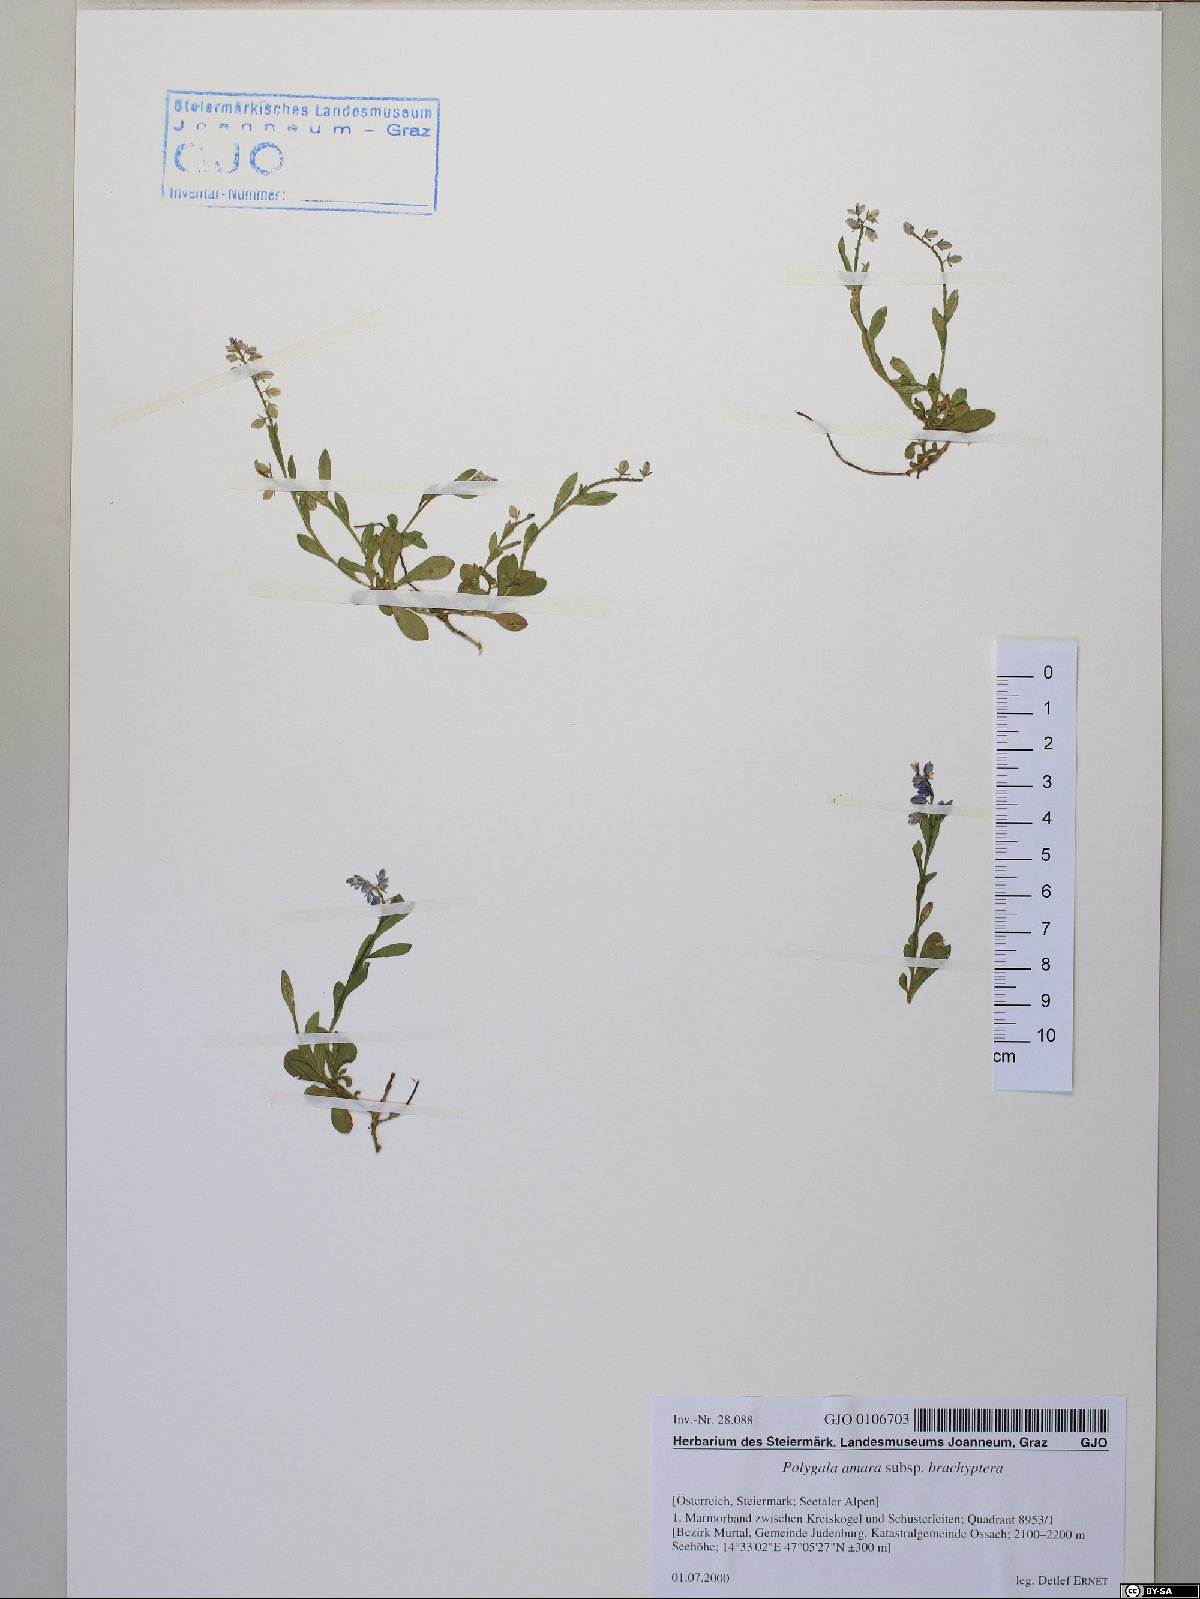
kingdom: Plantae
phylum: Tracheophyta
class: Magnoliopsida
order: Fabales
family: Polygalaceae
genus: Polygala
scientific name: Polygala amara
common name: Milkwort
